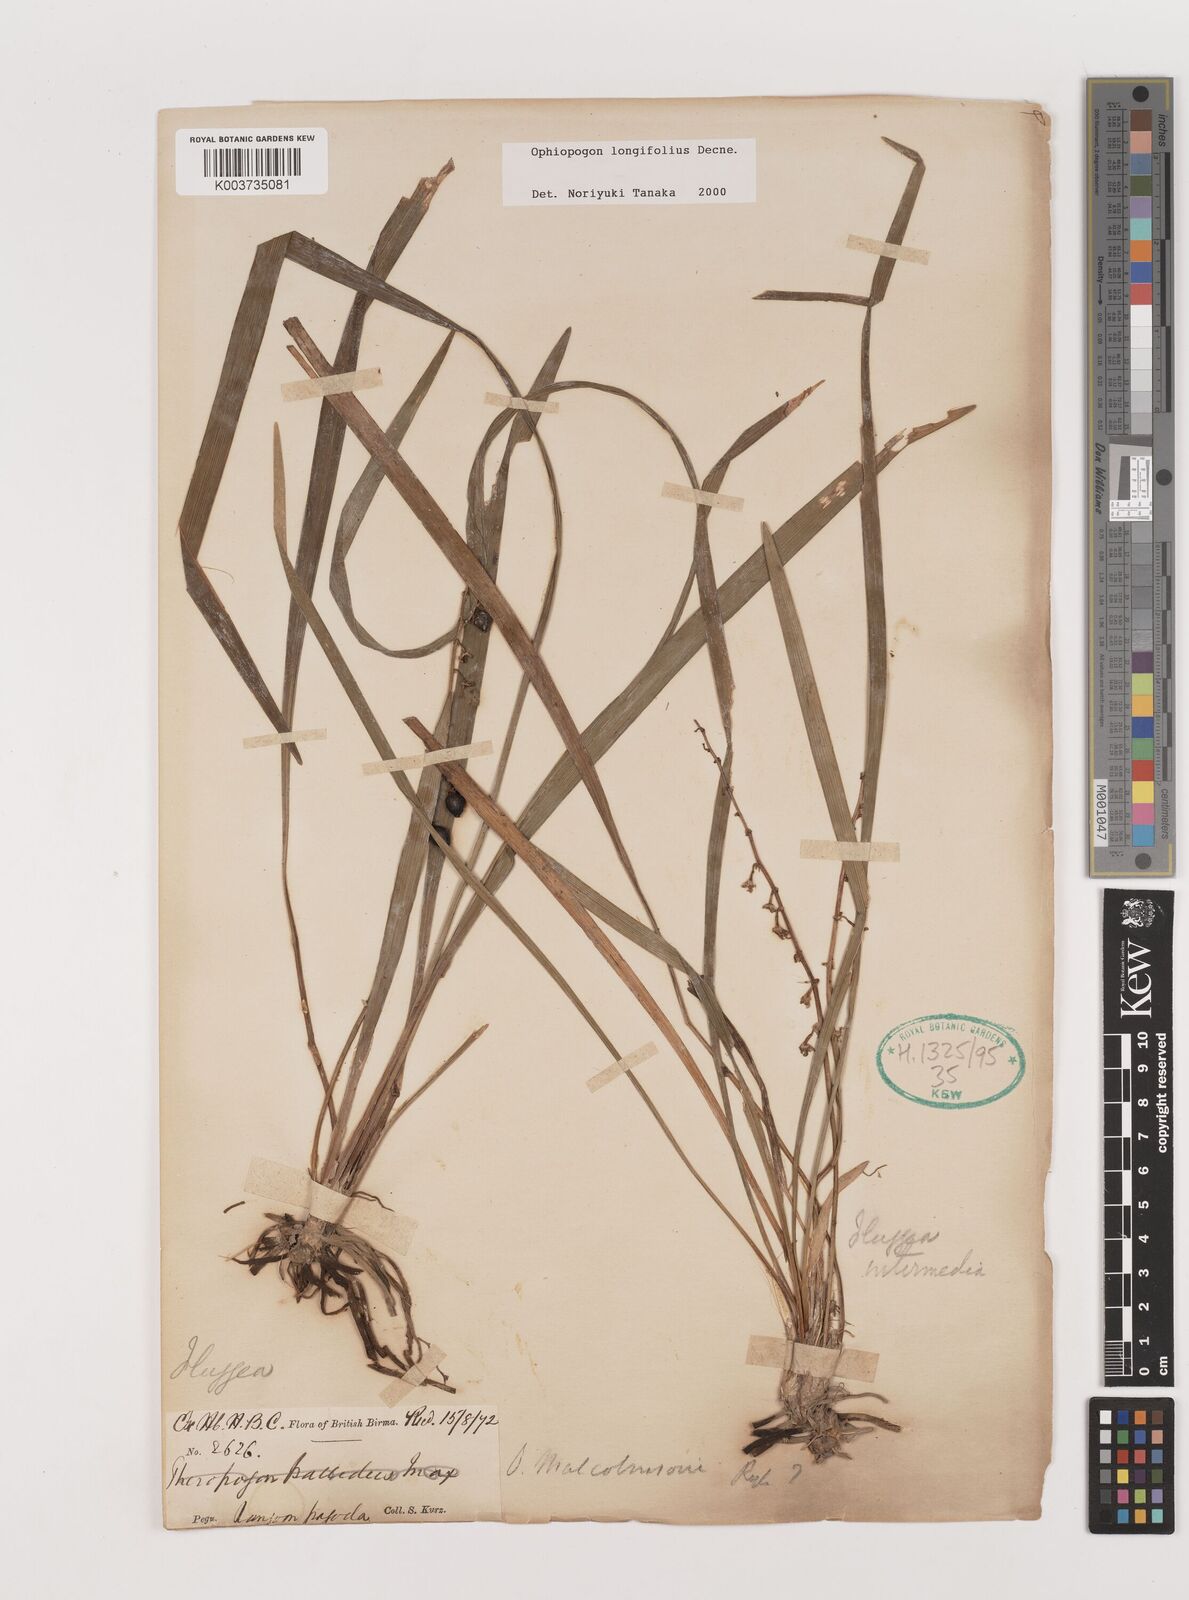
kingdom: Plantae
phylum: Tracheophyta
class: Liliopsida
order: Asparagales
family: Asparagaceae
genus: Ophiopogon
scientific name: Ophiopogon longifolius
